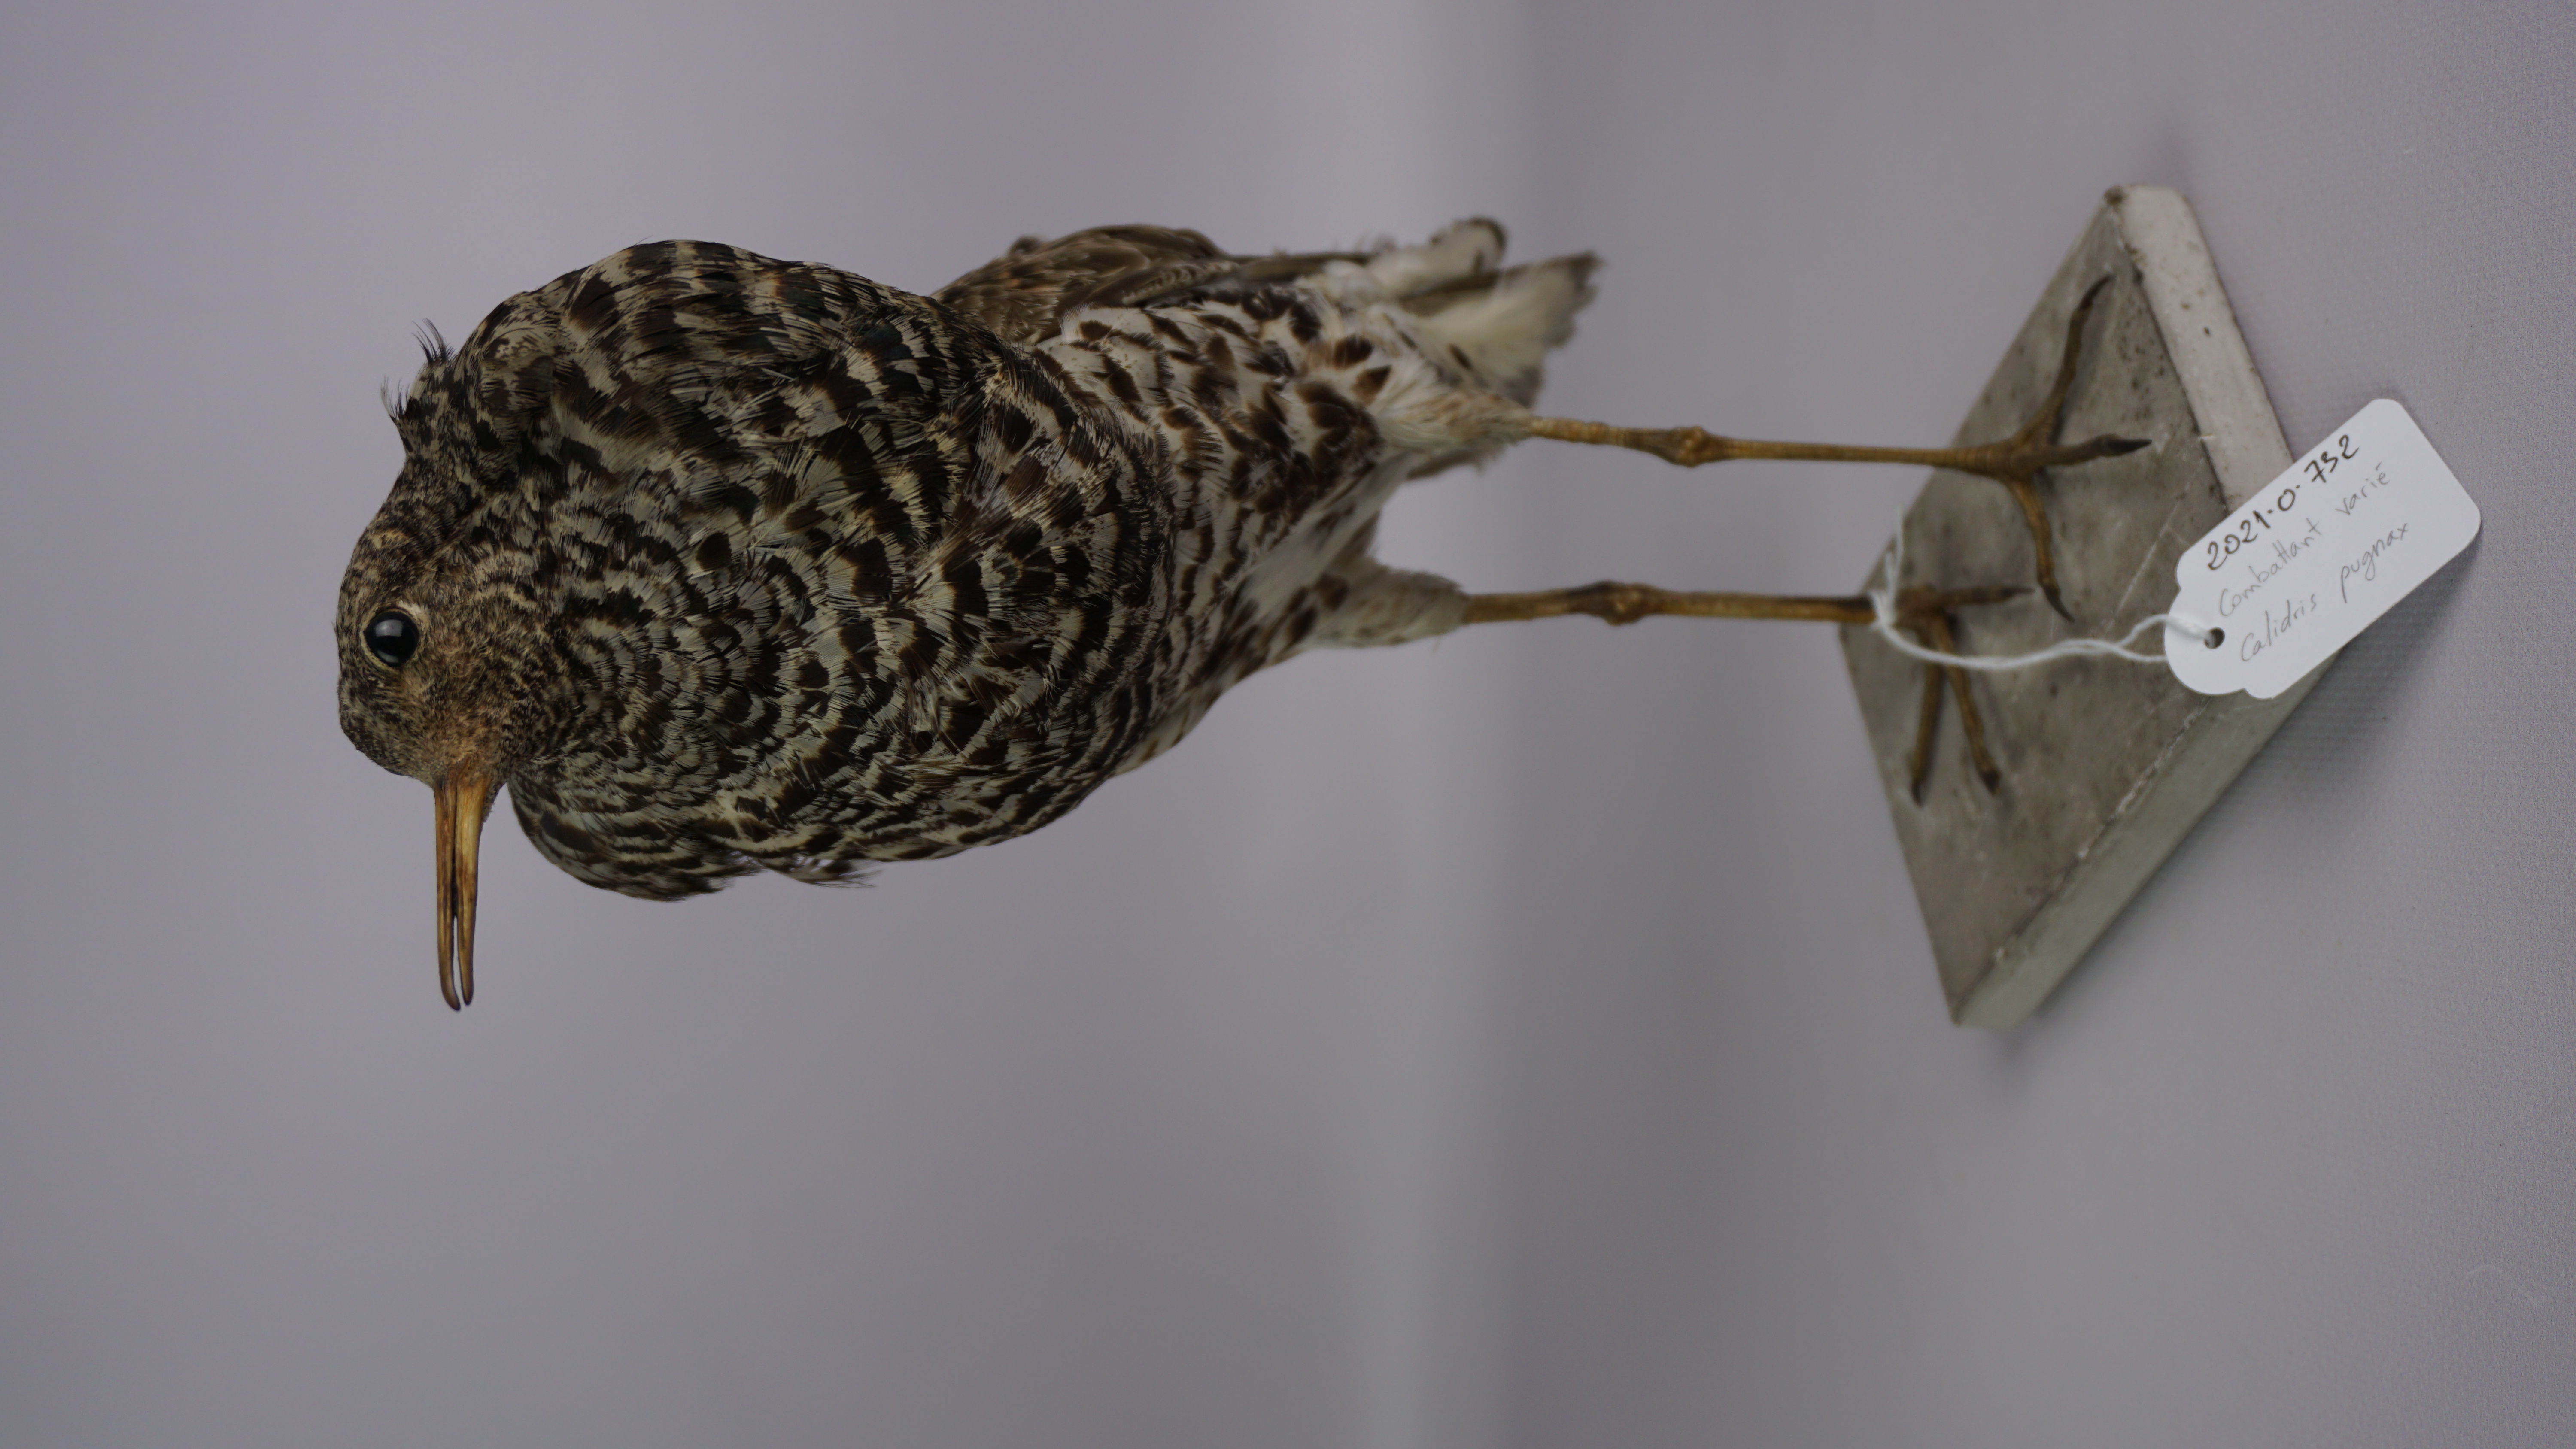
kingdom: Animalia
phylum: Chordata
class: Aves
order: Charadriiformes
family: Scolopacidae
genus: Calidris
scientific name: Calidris pugnax
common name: Ruff
